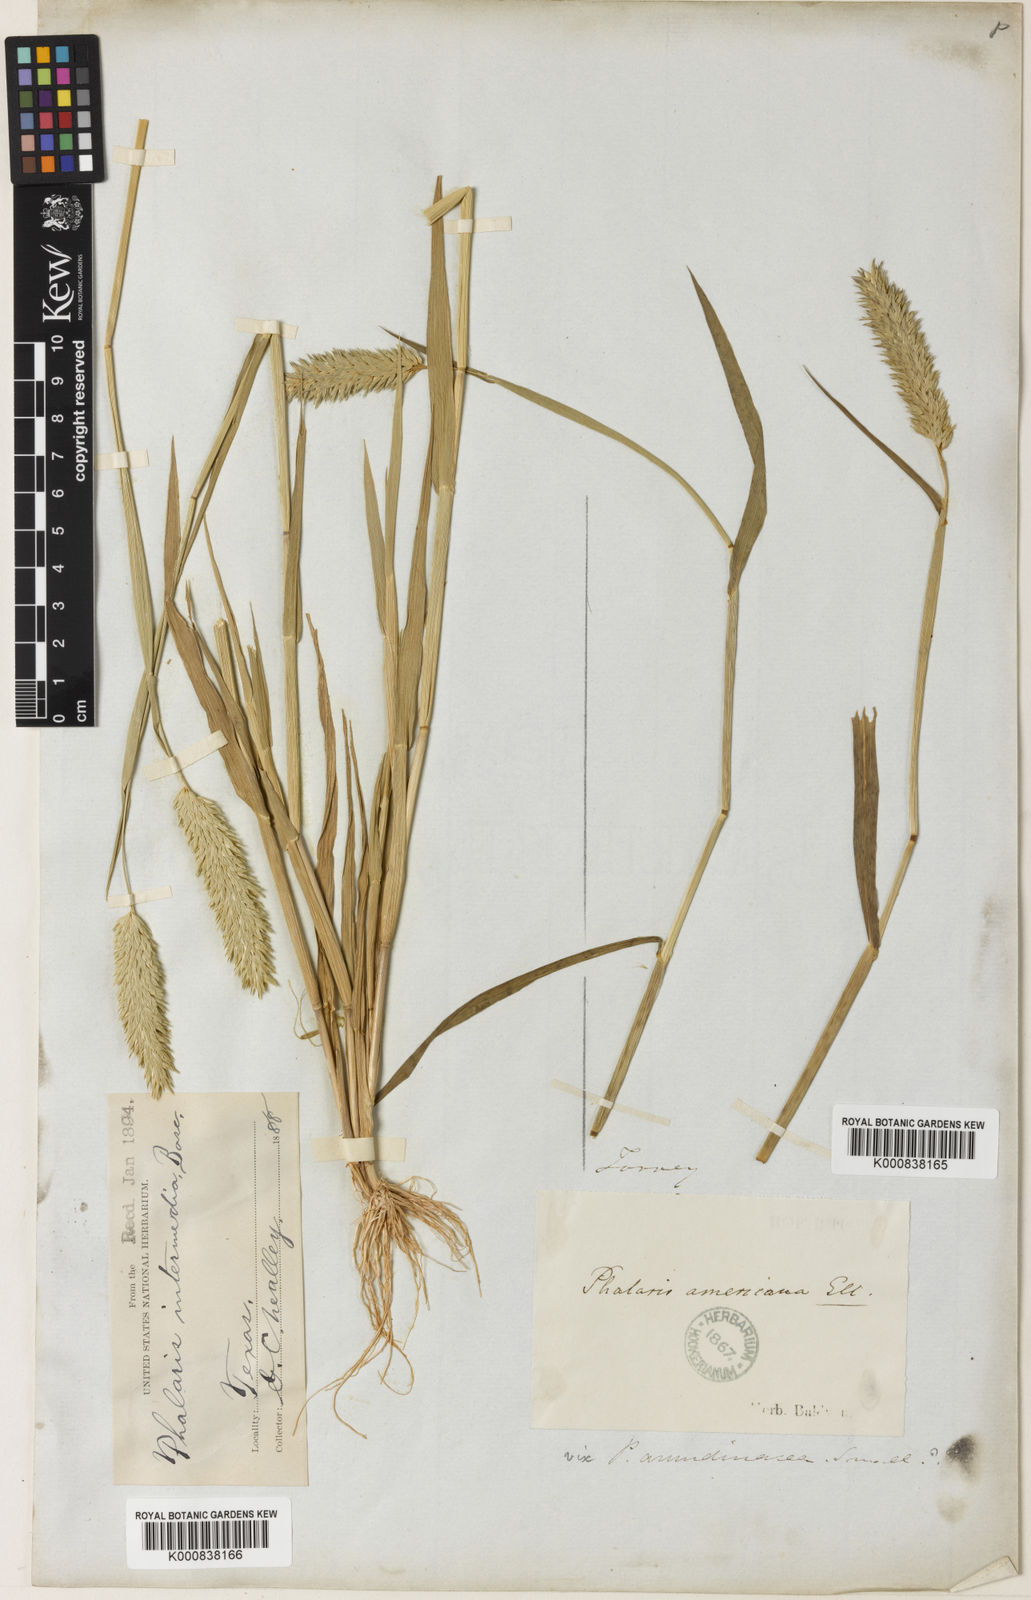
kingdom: Plantae
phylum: Tracheophyta
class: Liliopsida
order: Poales
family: Poaceae
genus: Phalaris
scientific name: Phalaris caroliniana
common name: May grass
